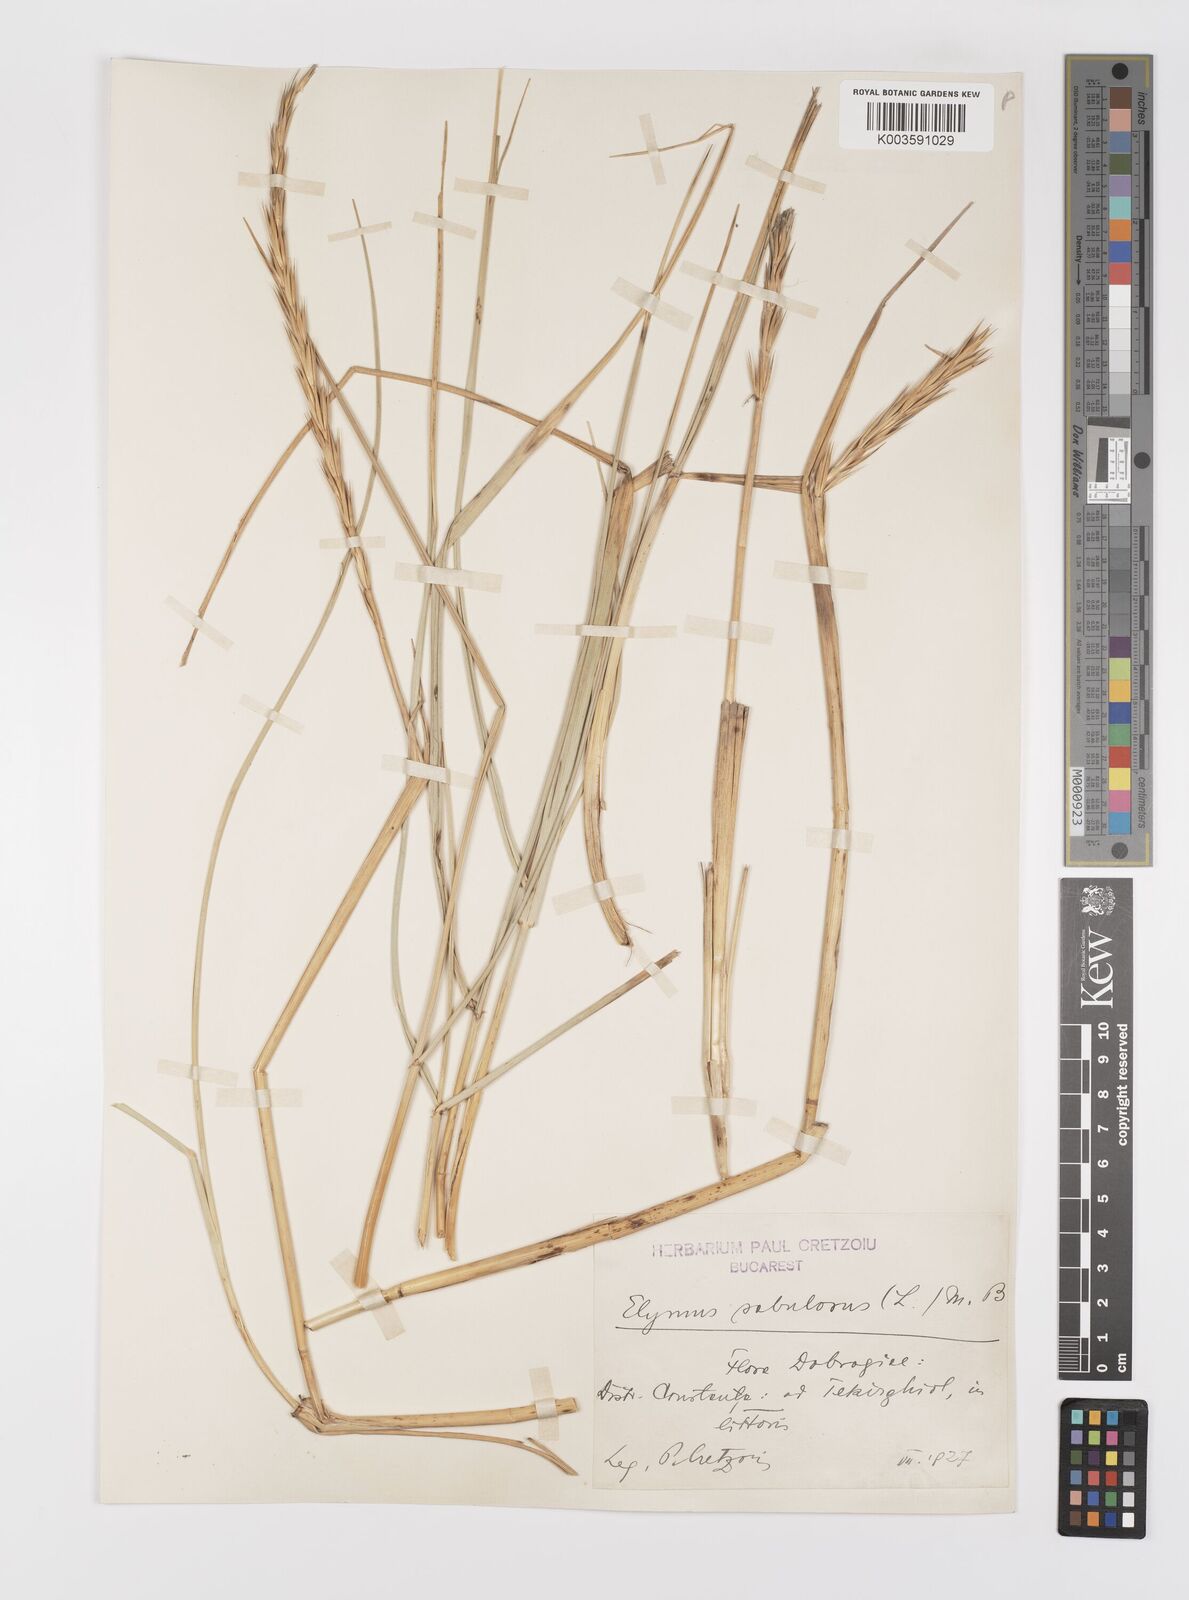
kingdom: Plantae
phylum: Tracheophyta
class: Liliopsida
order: Poales
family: Poaceae
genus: Leymus
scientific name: Leymus racemosus
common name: Mammoth wildrye
